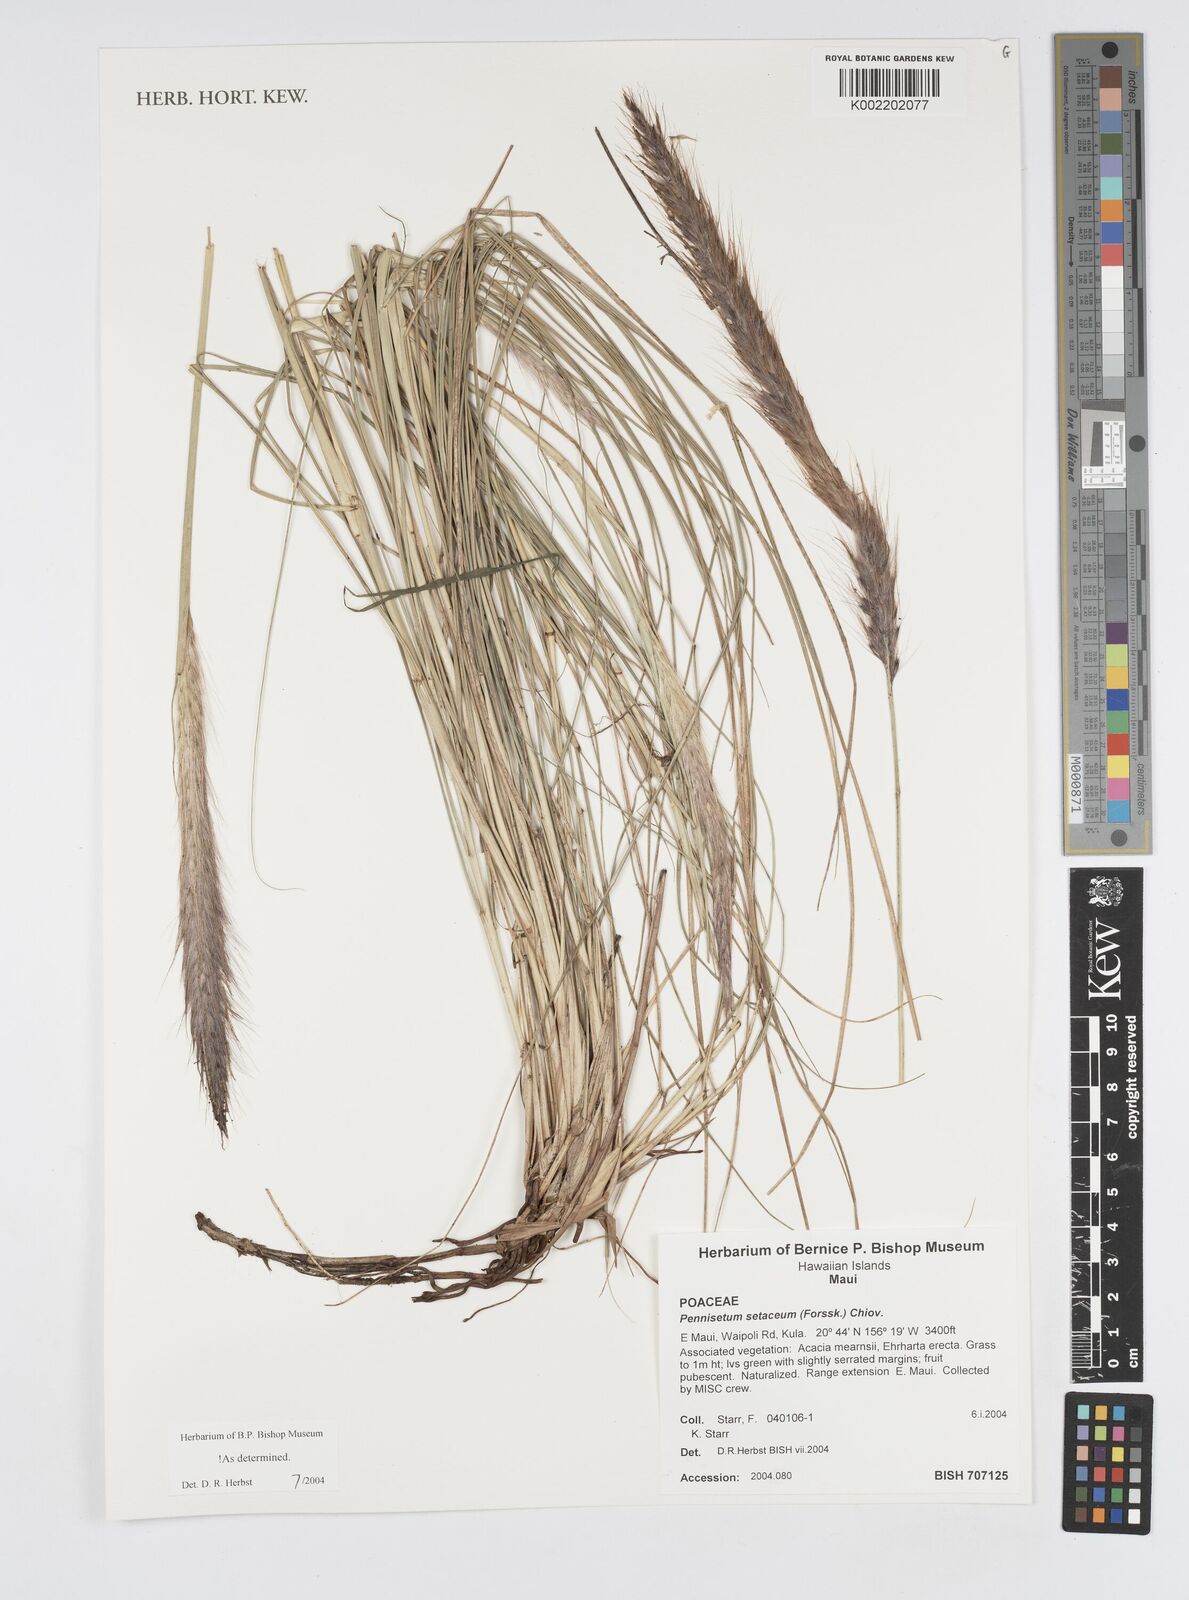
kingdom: Plantae
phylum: Tracheophyta
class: Liliopsida
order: Poales
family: Poaceae
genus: Cenchrus
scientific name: Cenchrus setaceus
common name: Crimson fountaingrass
